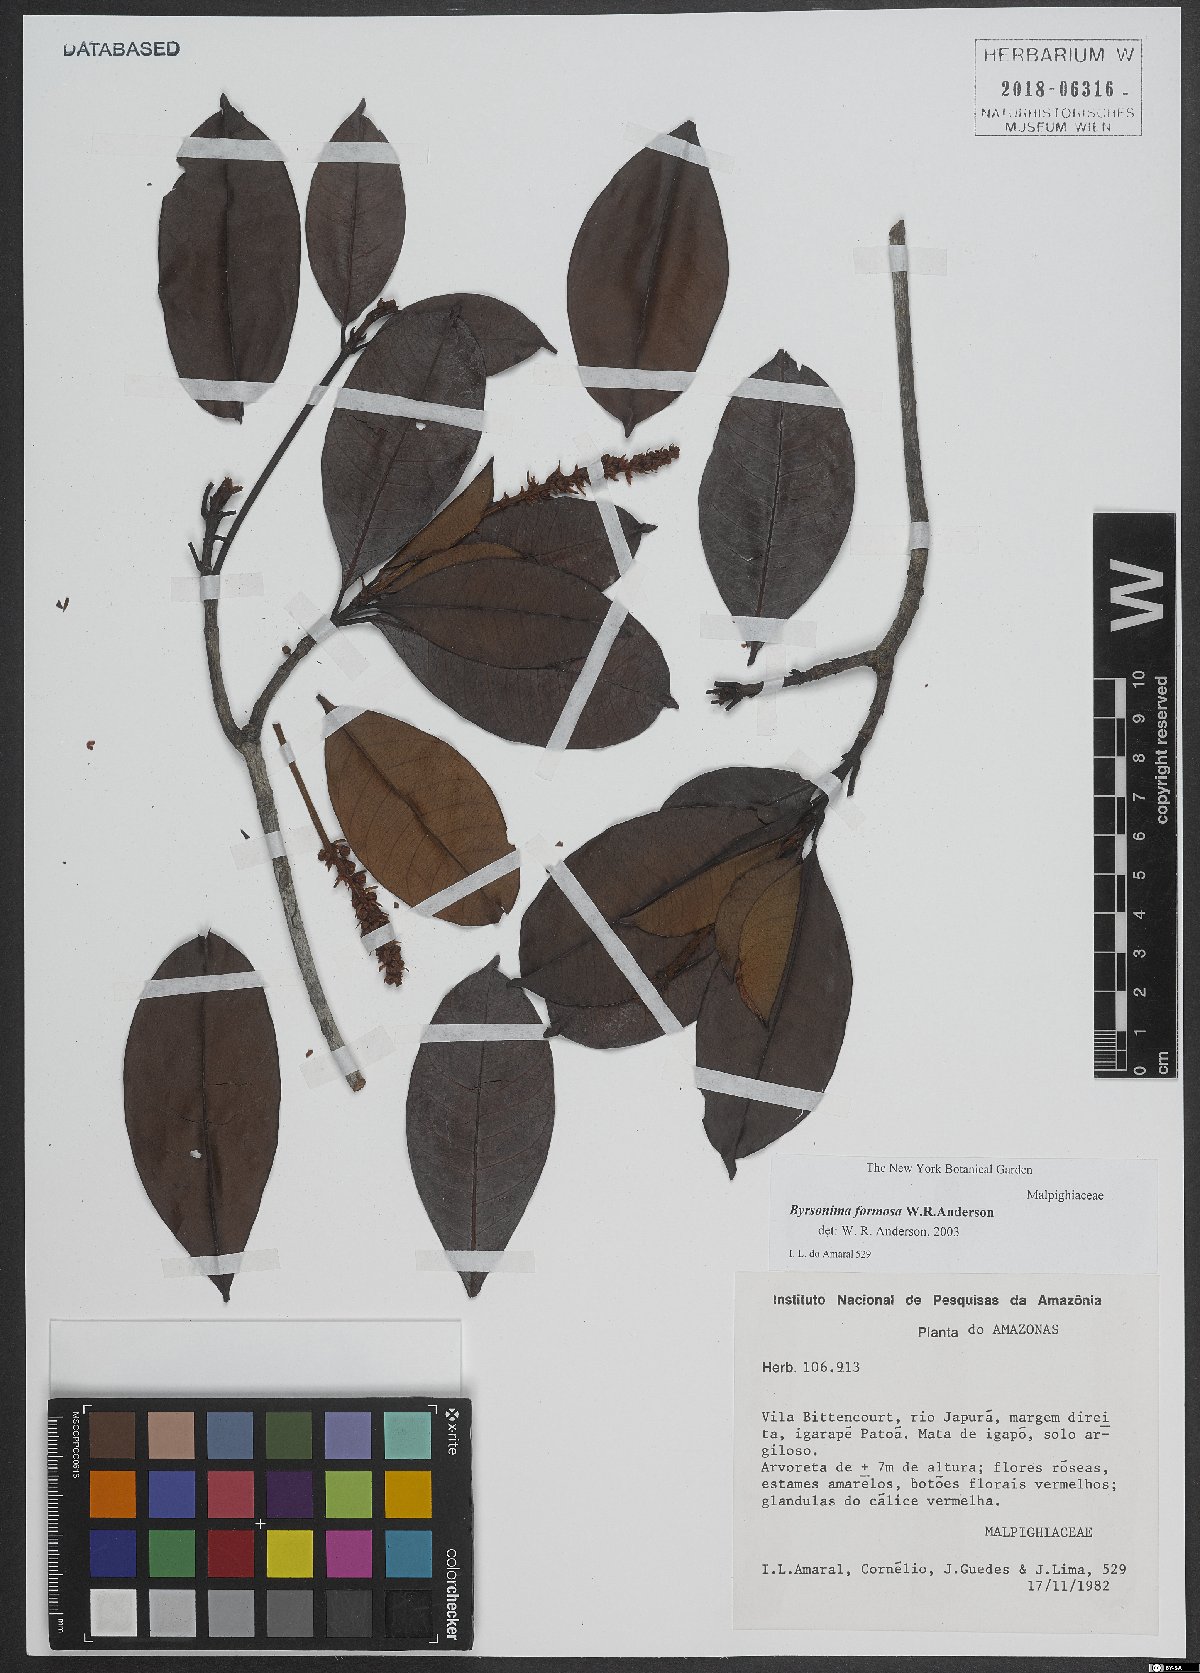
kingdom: Plantae
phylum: Tracheophyta
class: Magnoliopsida
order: Malpighiales
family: Malpighiaceae
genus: Byrsonima
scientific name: Byrsonima formosa
